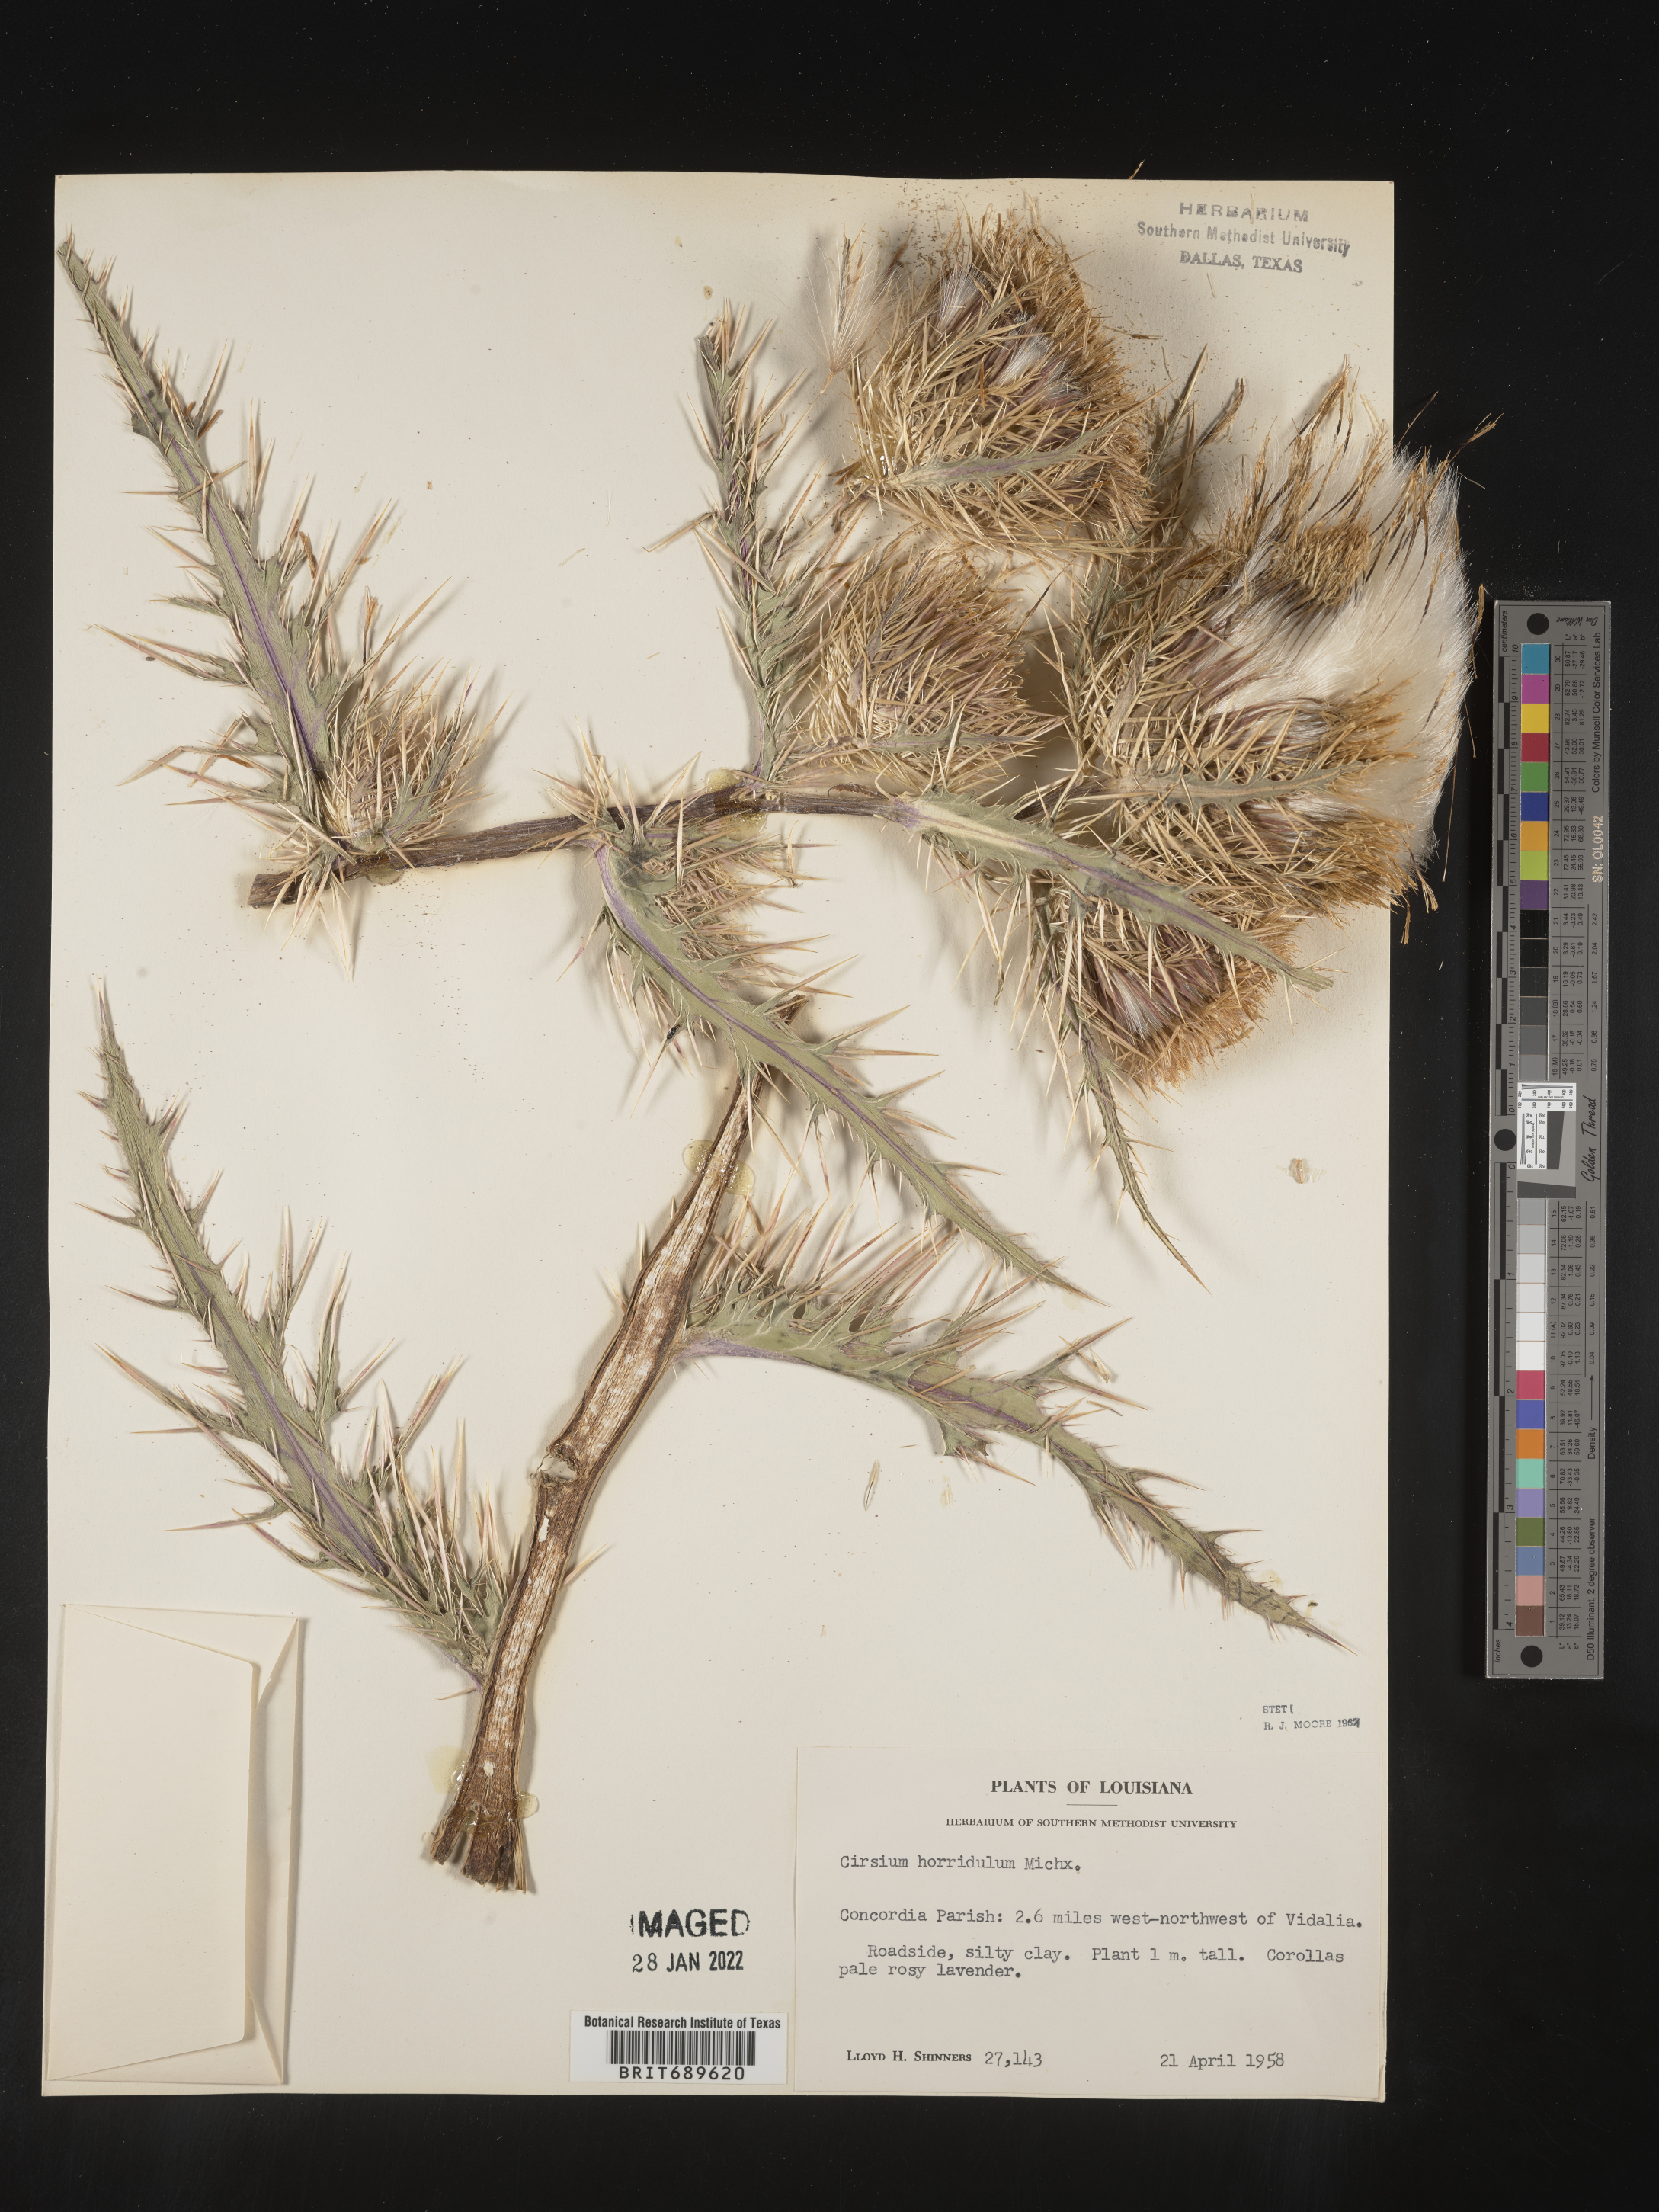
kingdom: Plantae
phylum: Tracheophyta
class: Magnoliopsida
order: Asterales
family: Asteraceae
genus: Cirsium
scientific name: Cirsium horridulum
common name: Bristly thistle
